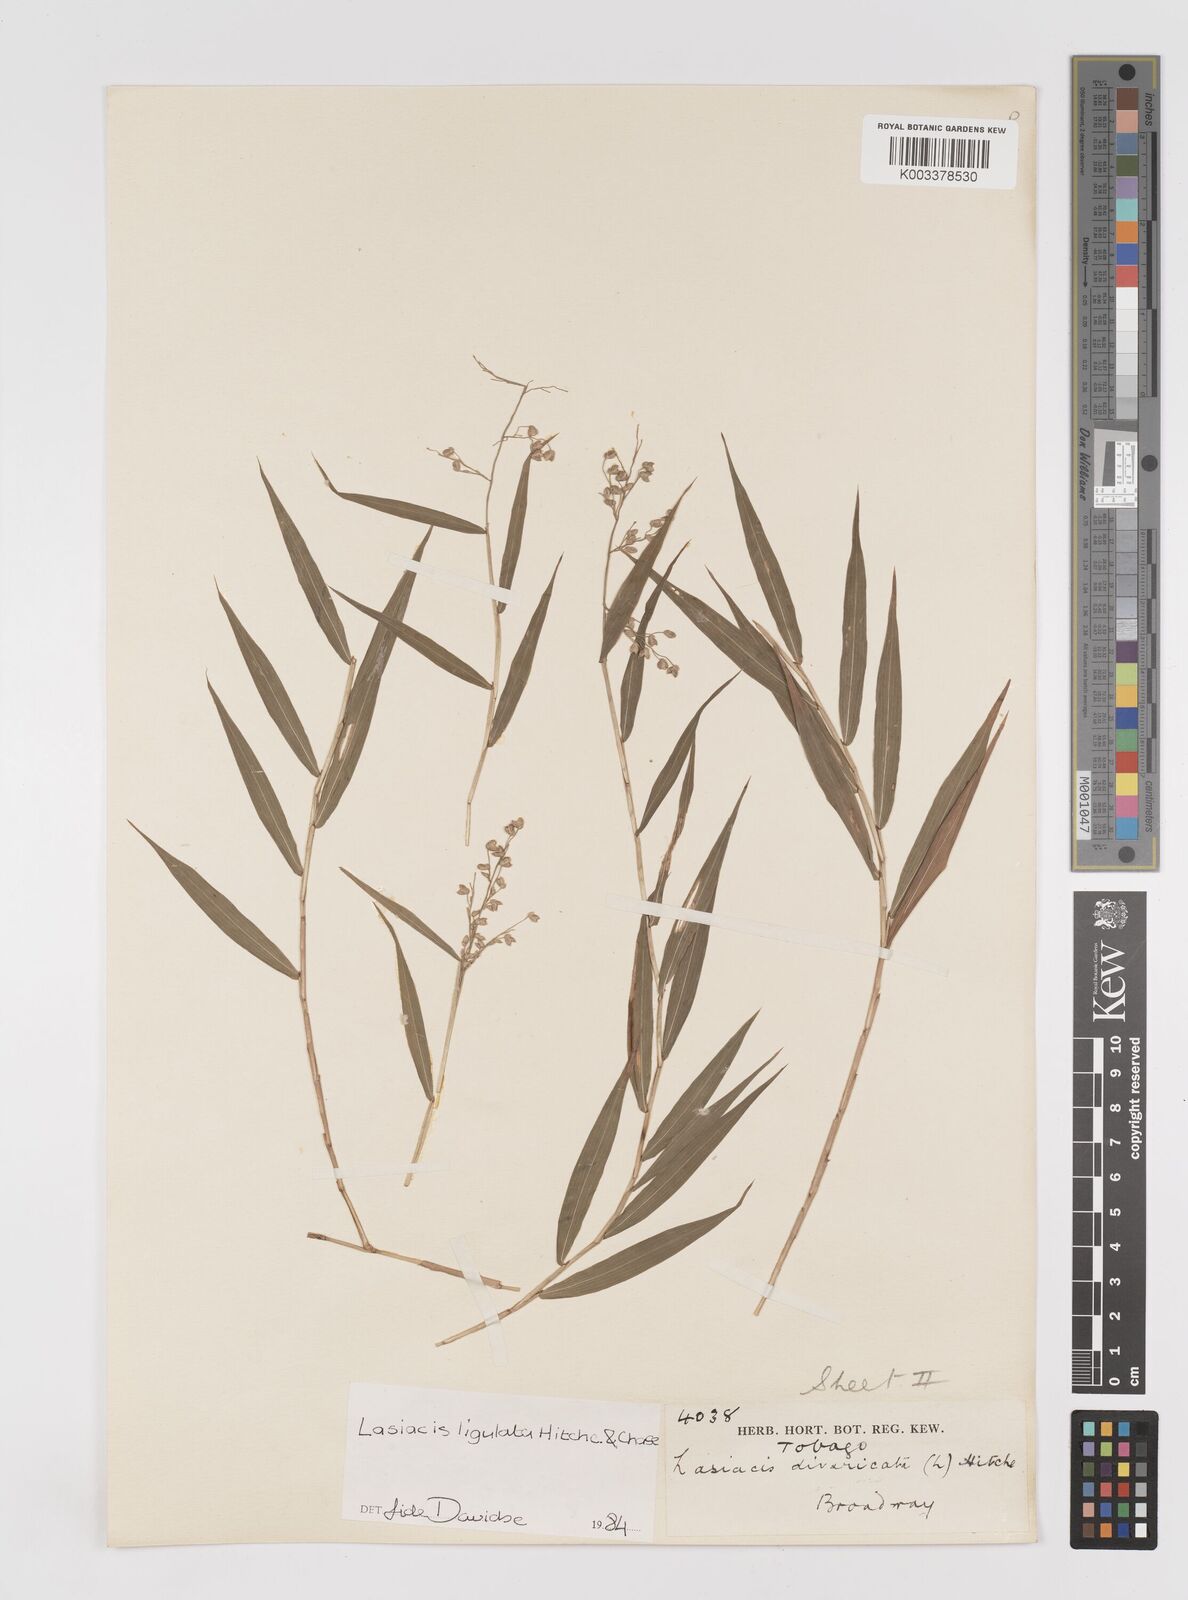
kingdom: Plantae
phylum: Tracheophyta
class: Liliopsida
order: Poales
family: Poaceae
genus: Lasiacis
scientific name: Lasiacis ligulata
